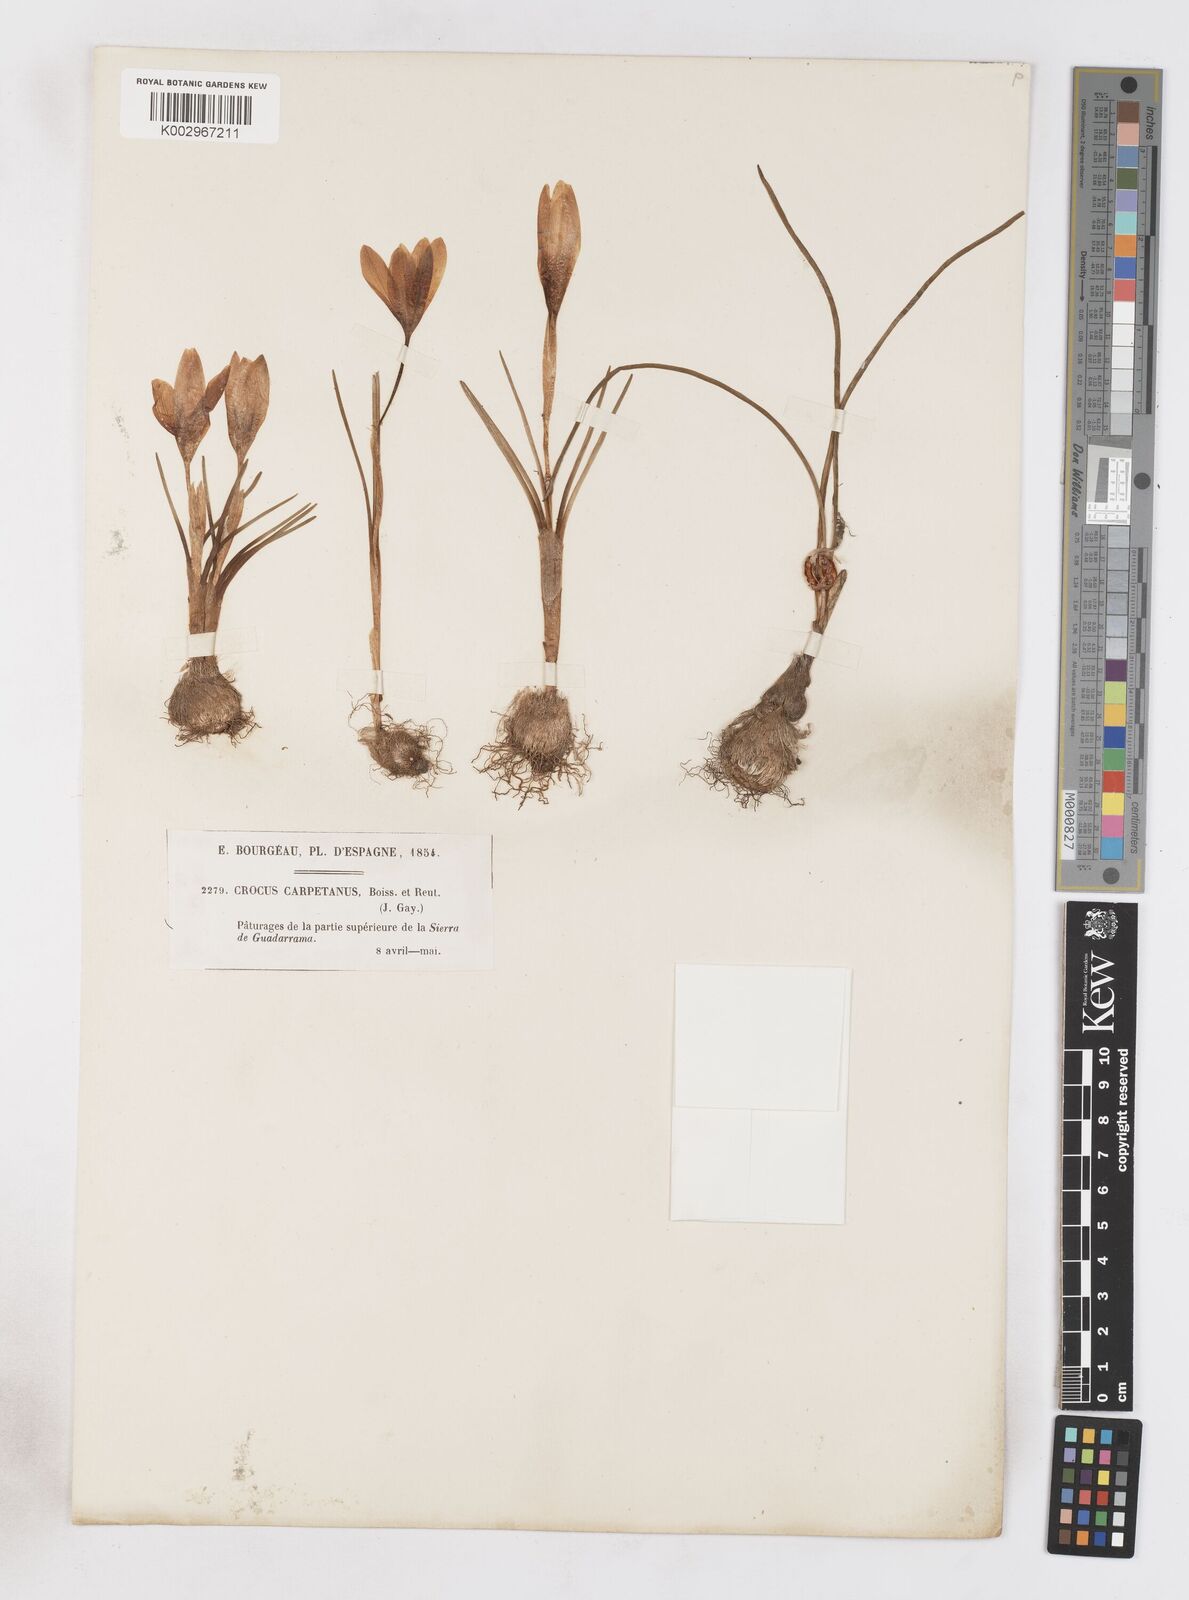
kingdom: Plantae
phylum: Tracheophyta
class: Liliopsida
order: Asparagales
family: Iridaceae
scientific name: Iridaceae
